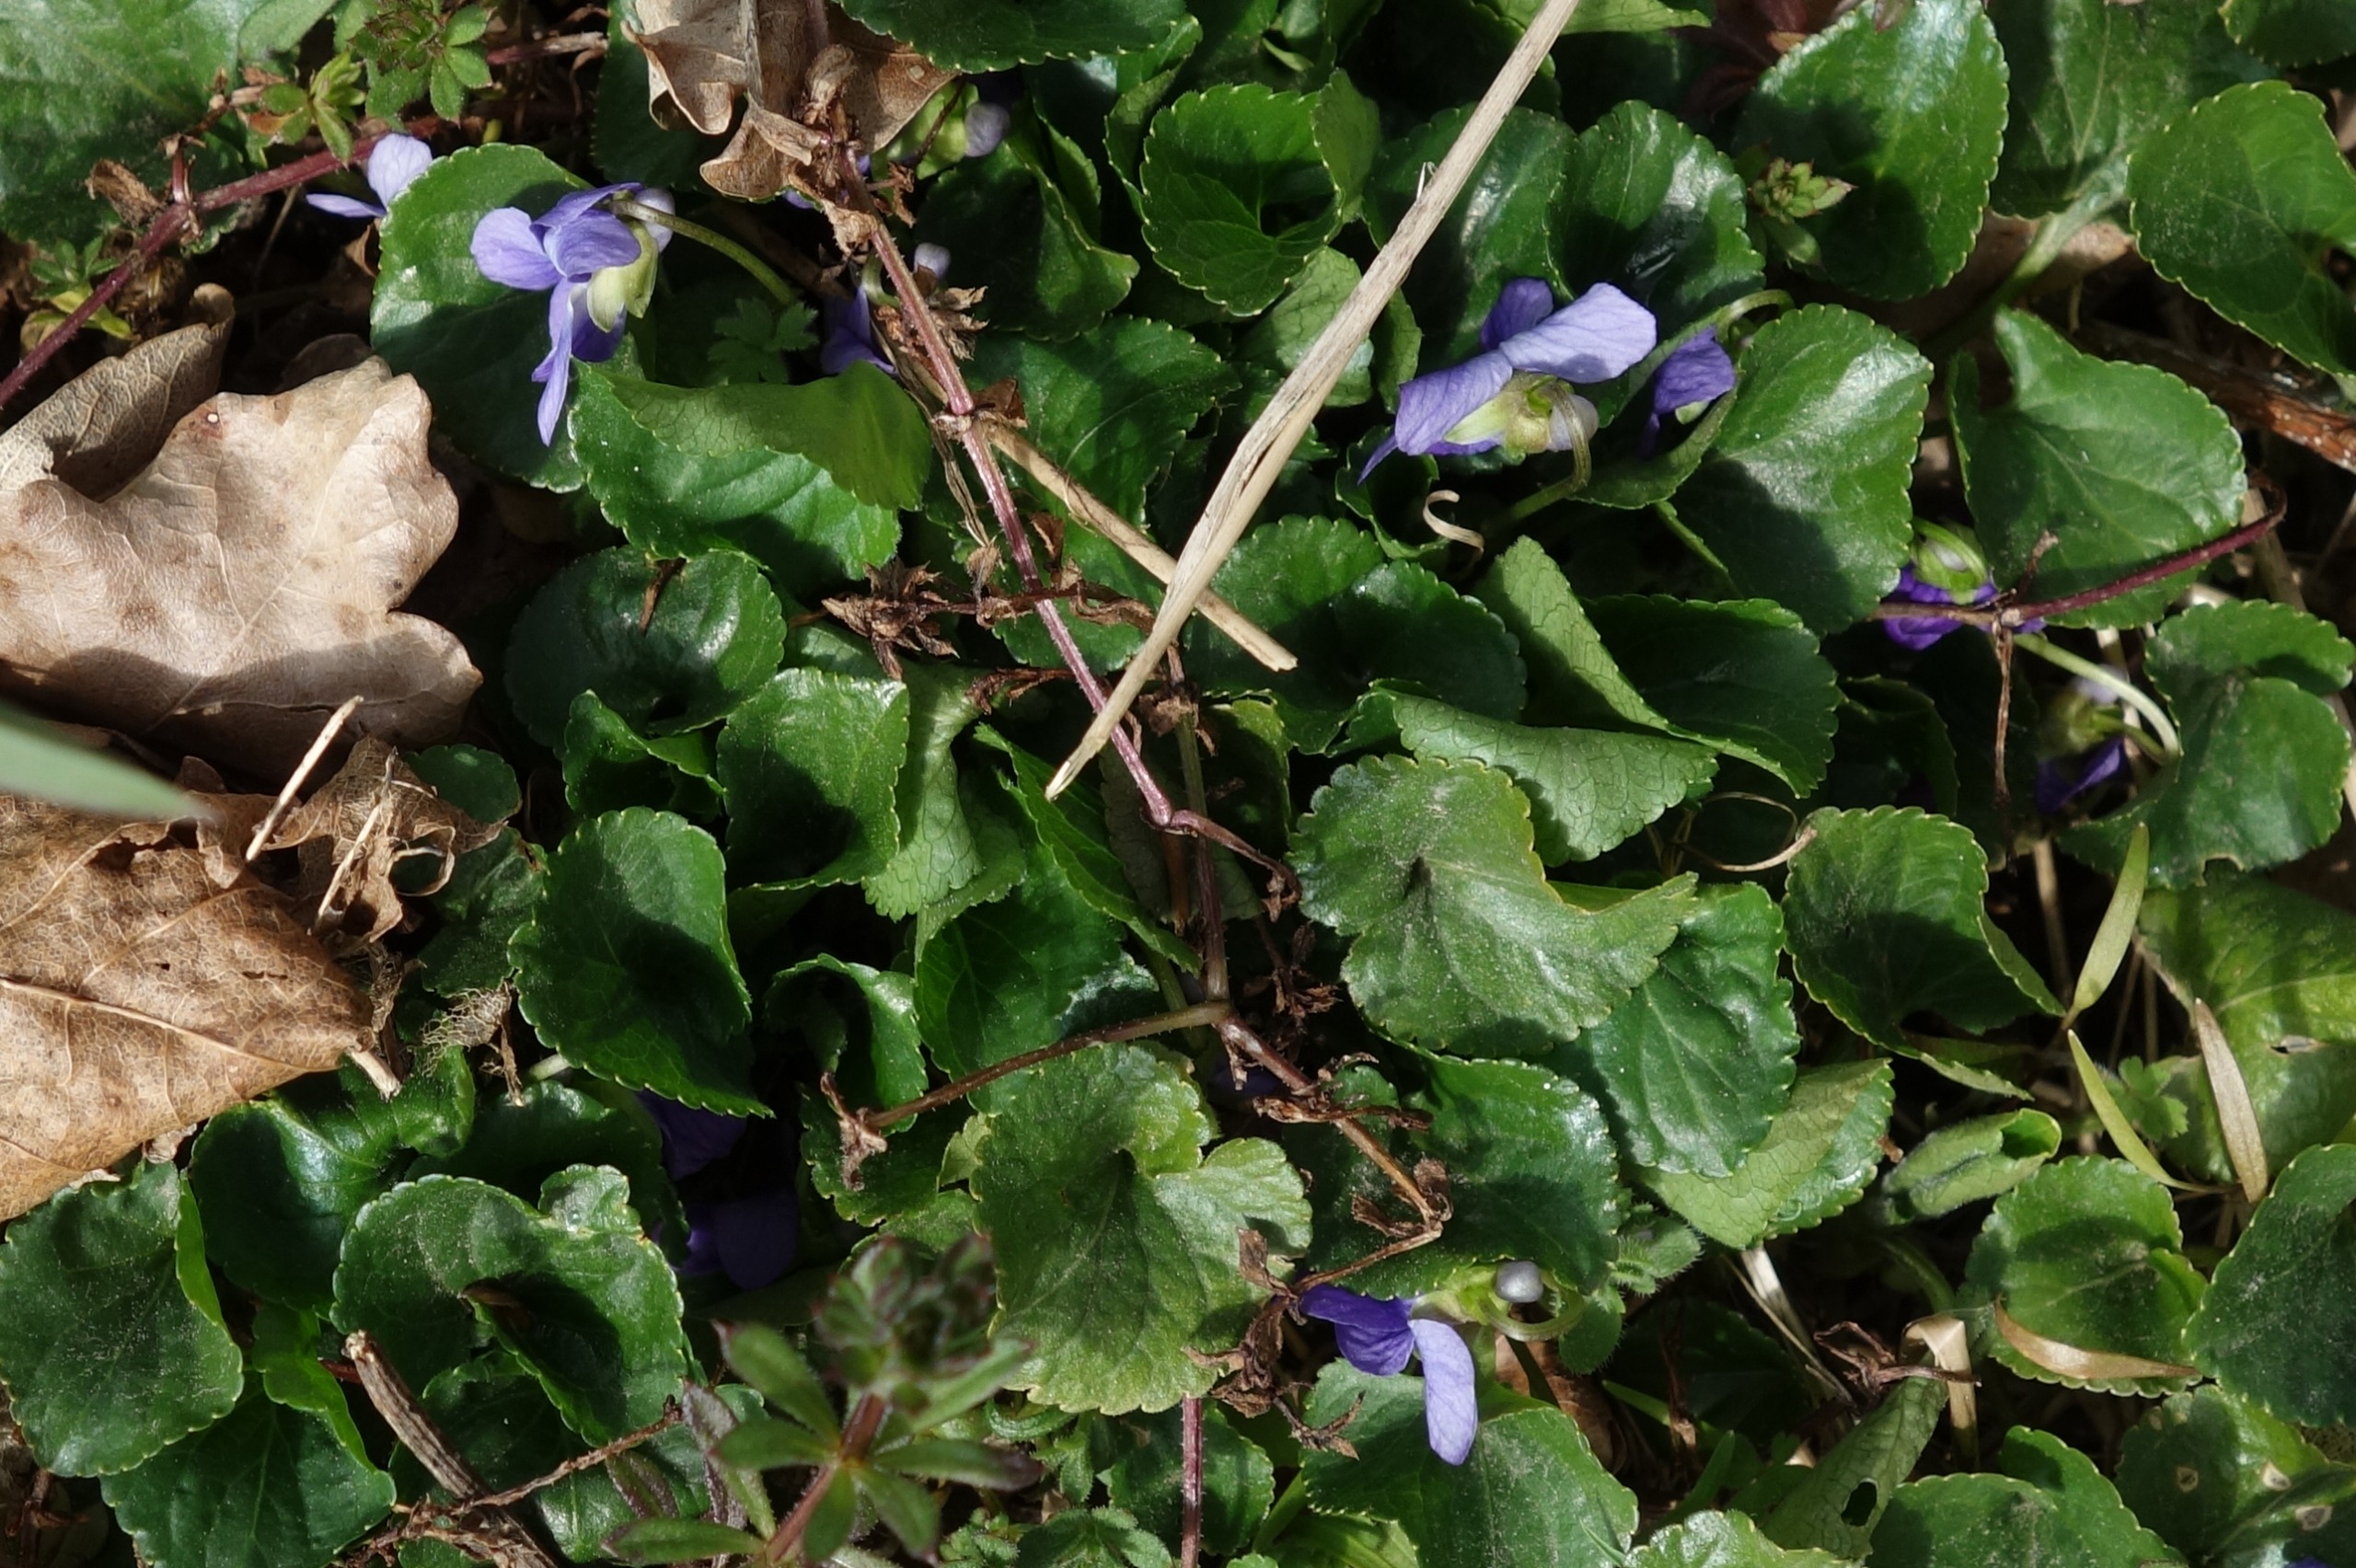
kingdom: Plantae
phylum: Tracheophyta
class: Magnoliopsida
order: Malpighiales
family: Violaceae
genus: Viola
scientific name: Viola odorata
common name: Marts-viol
